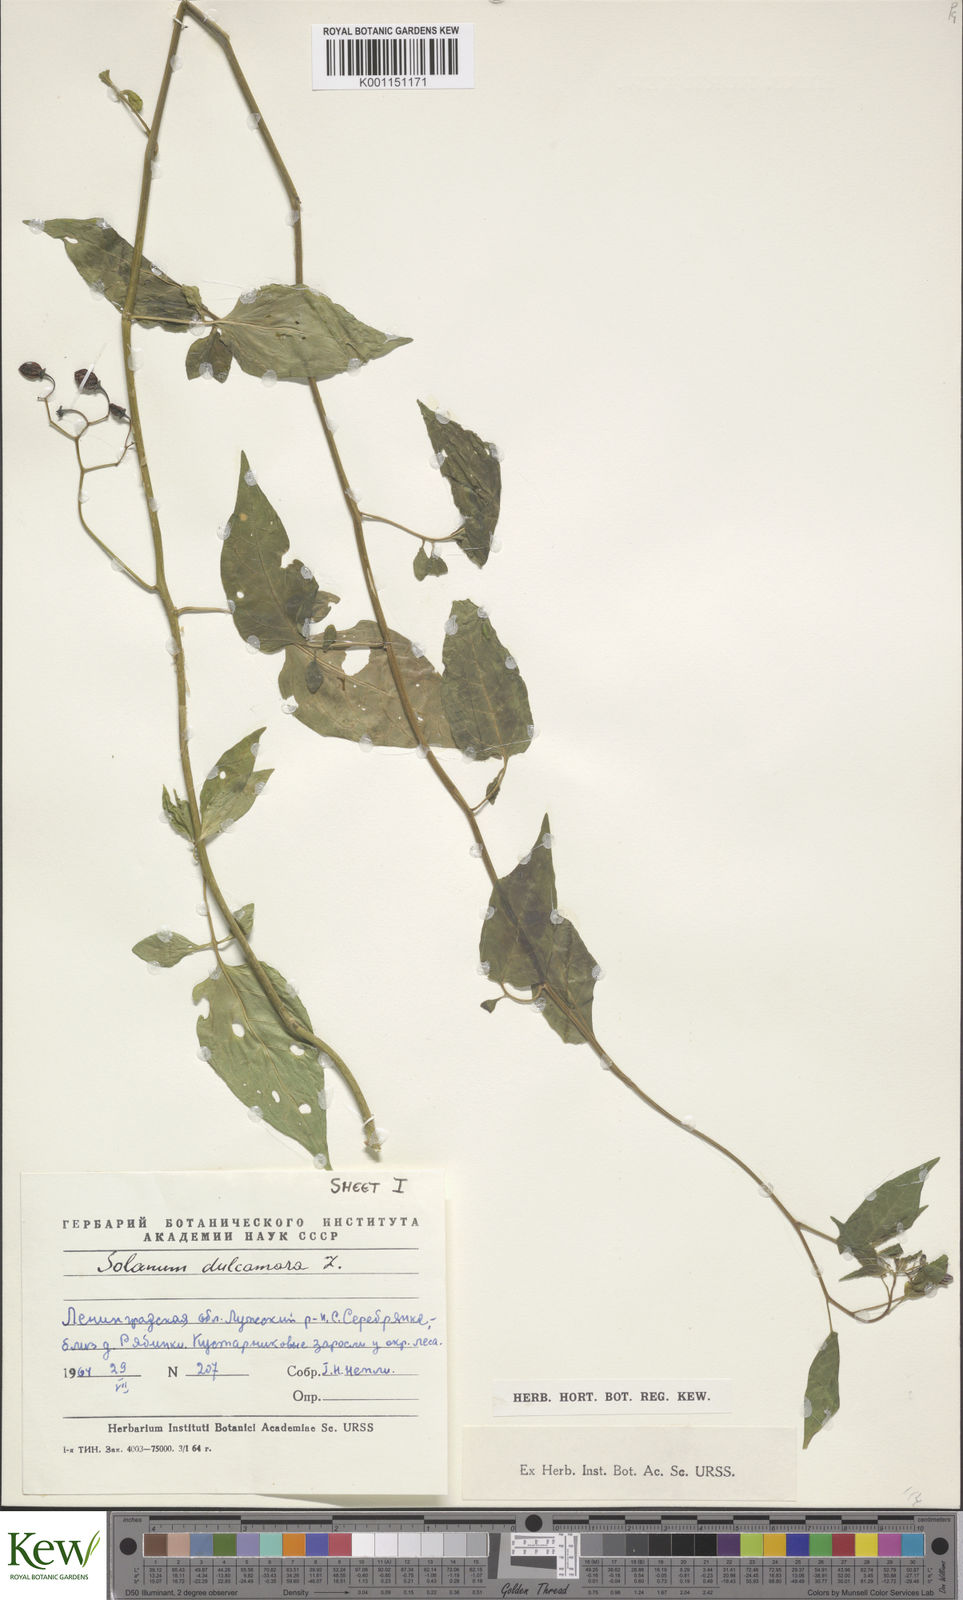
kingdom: Plantae
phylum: Tracheophyta
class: Magnoliopsida
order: Solanales
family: Solanaceae
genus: Solanum
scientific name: Solanum dulcamara
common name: Climbing nightshade
